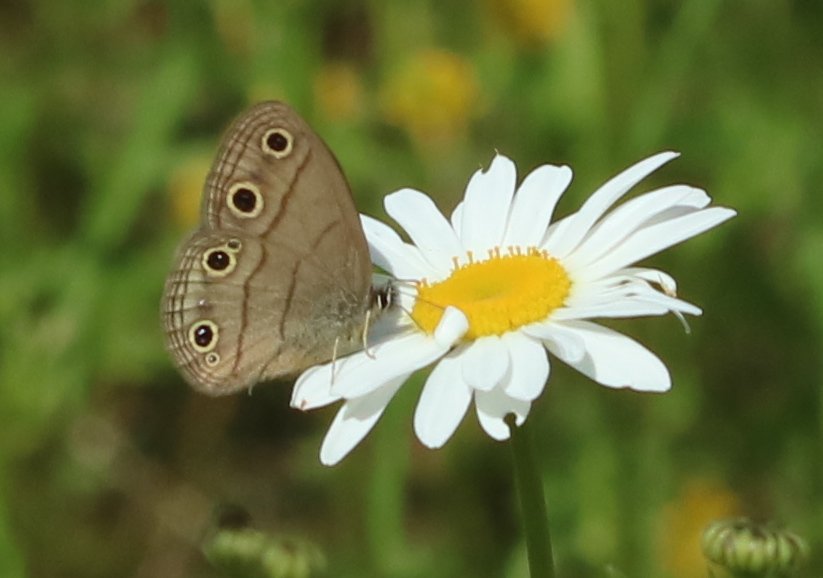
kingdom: Animalia
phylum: Arthropoda
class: Insecta
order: Lepidoptera
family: Nymphalidae
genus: Euptychia
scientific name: Euptychia cymela
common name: Little Wood Satyr
